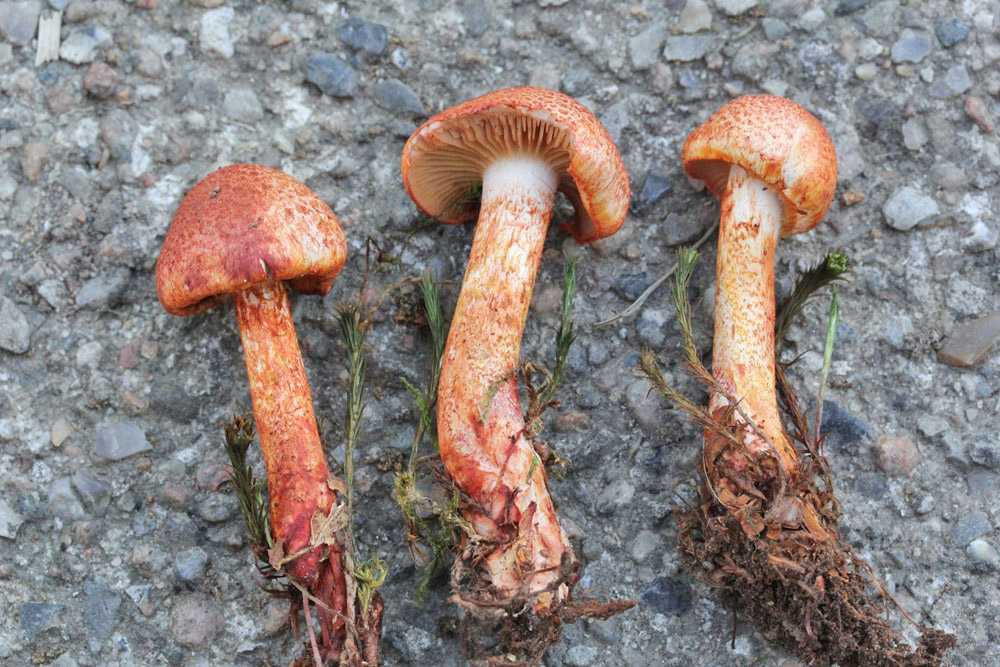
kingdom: Fungi
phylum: Basidiomycota
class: Agaricomycetes
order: Agaricales
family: Cortinariaceae
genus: Cortinarius
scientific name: Cortinarius bolaris
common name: cinnoberskællet slørhat
